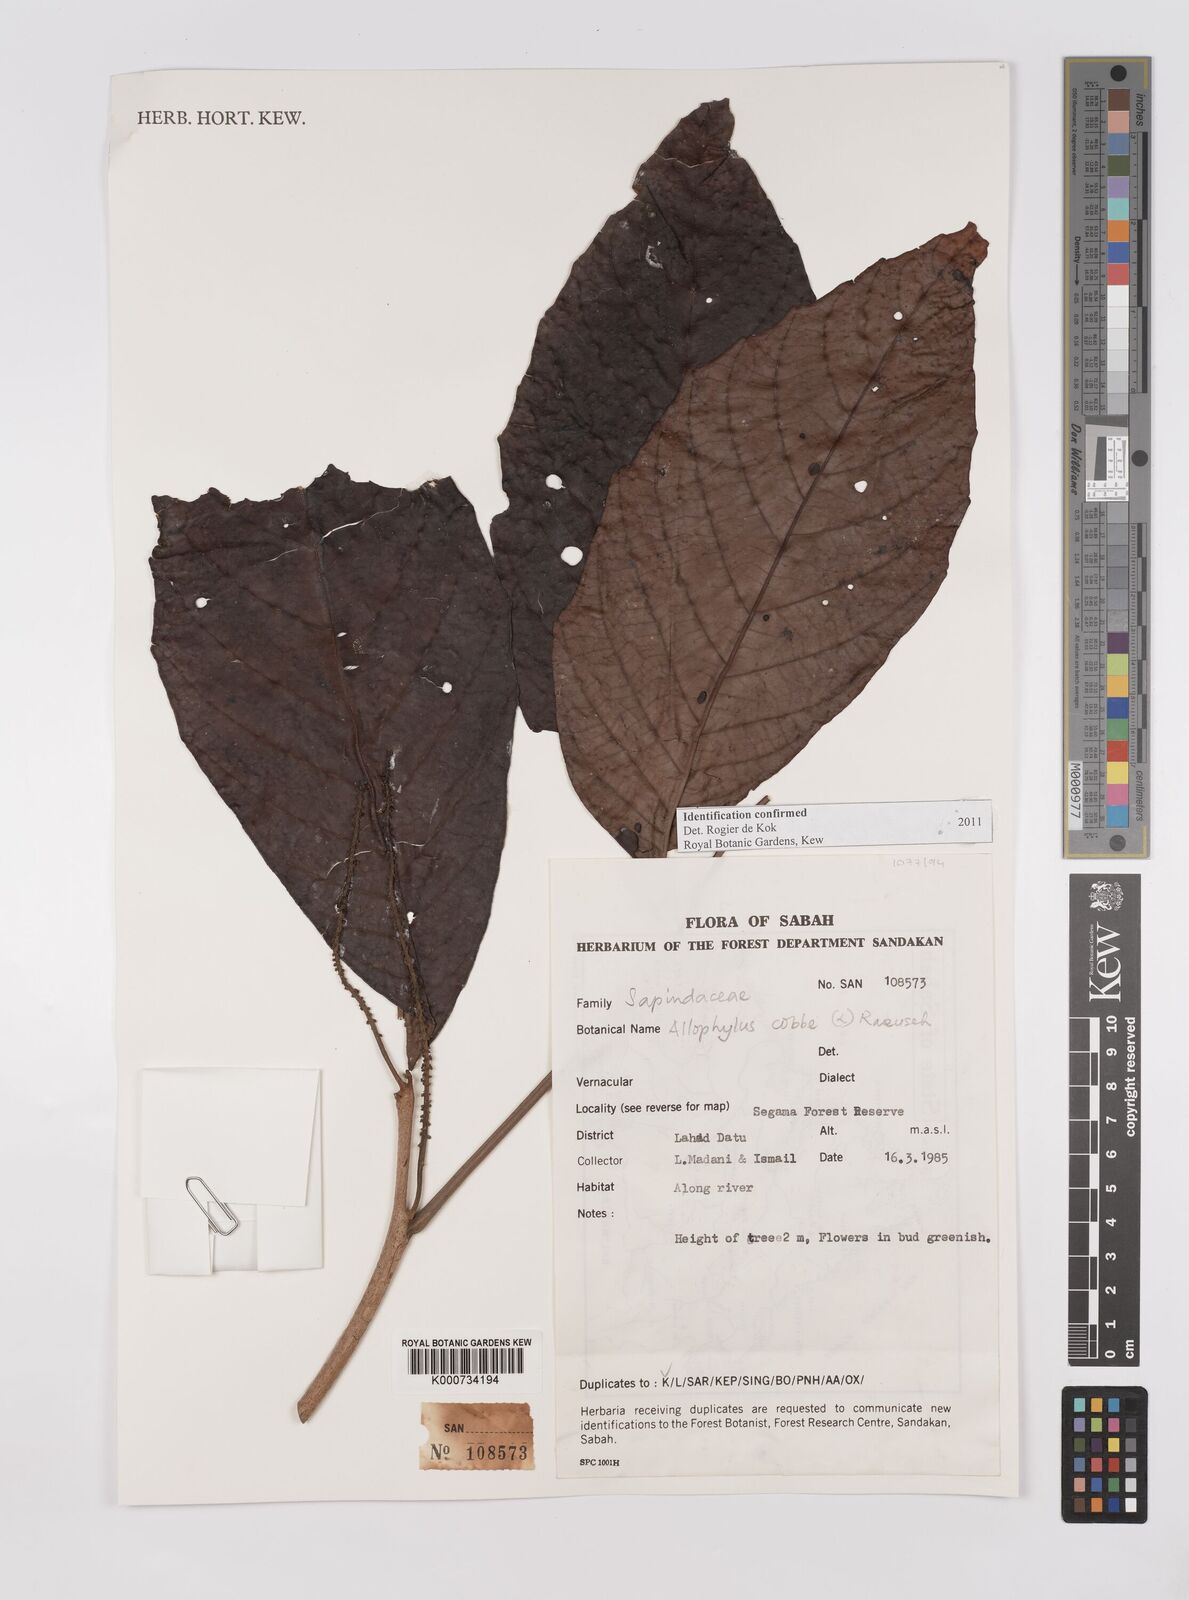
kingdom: Plantae
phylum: Tracheophyta
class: Magnoliopsida
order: Sapindales
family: Sapindaceae
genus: Allophylus
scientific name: Allophylus
